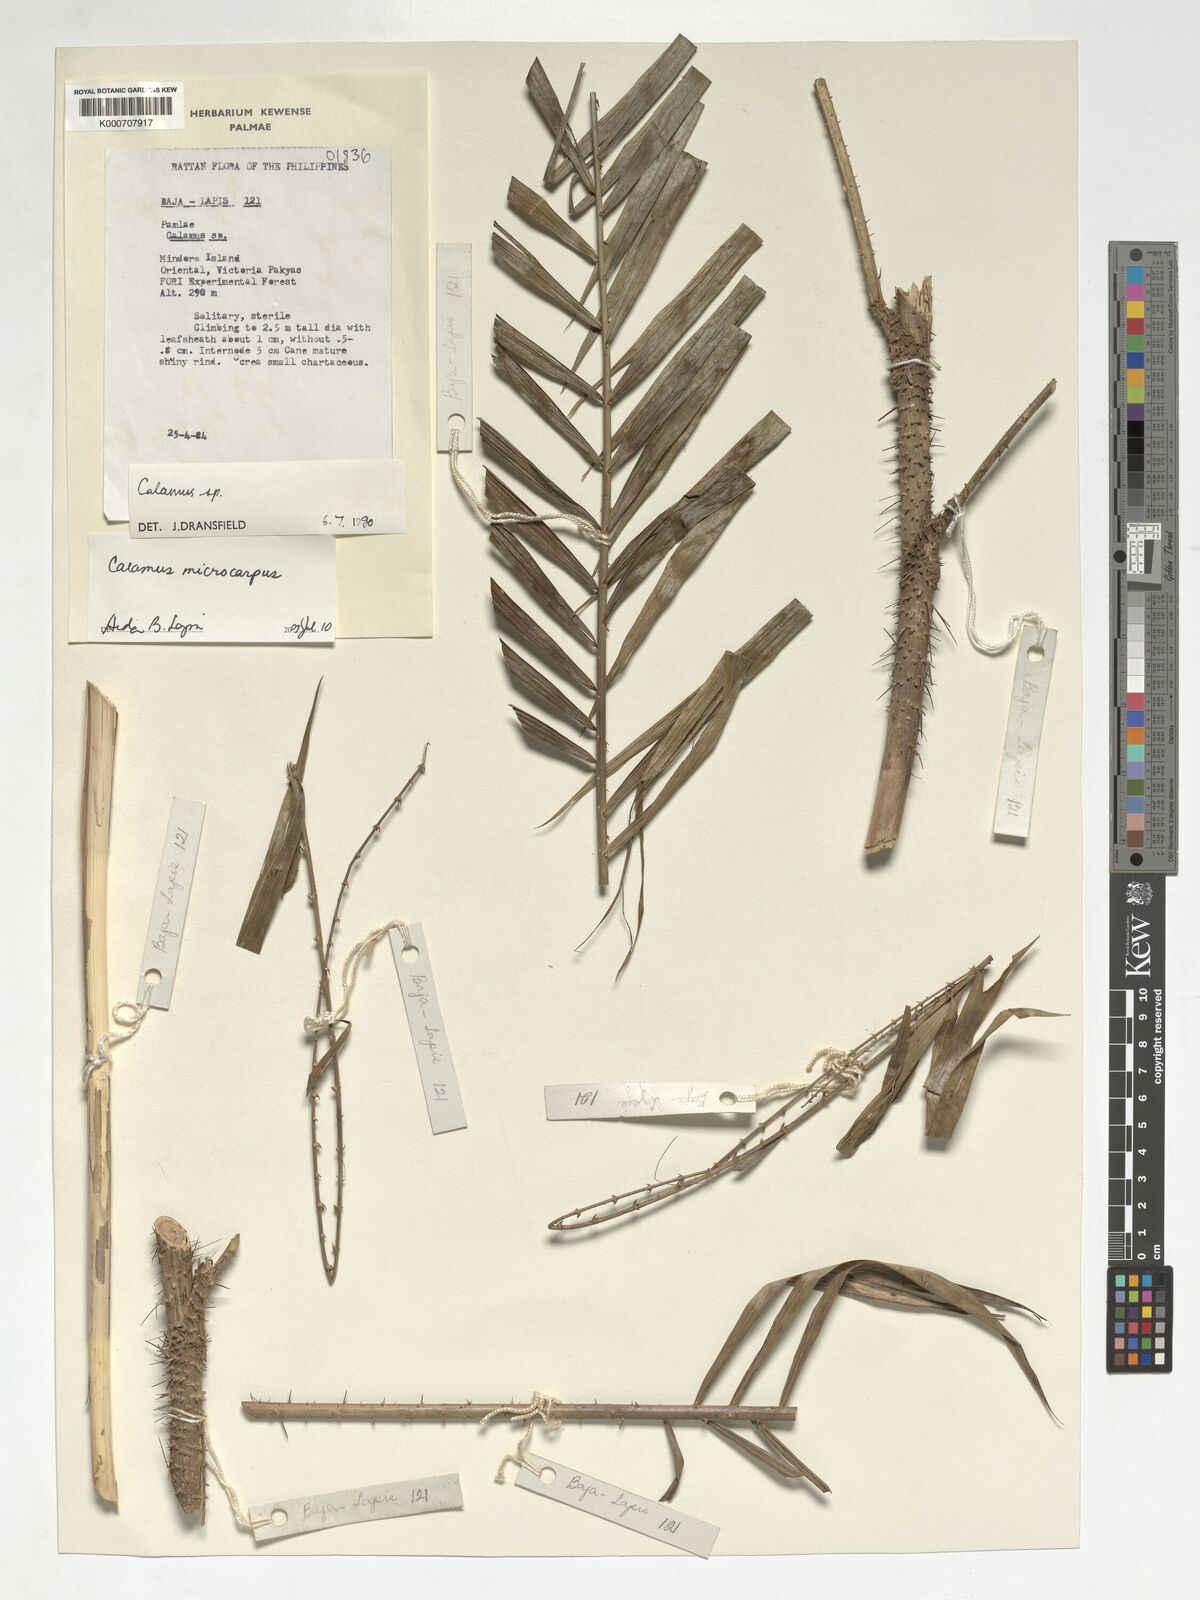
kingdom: Plantae
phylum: Tracheophyta
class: Liliopsida
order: Arecales
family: Arecaceae
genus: Calamus
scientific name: Calamus siphonospathus
